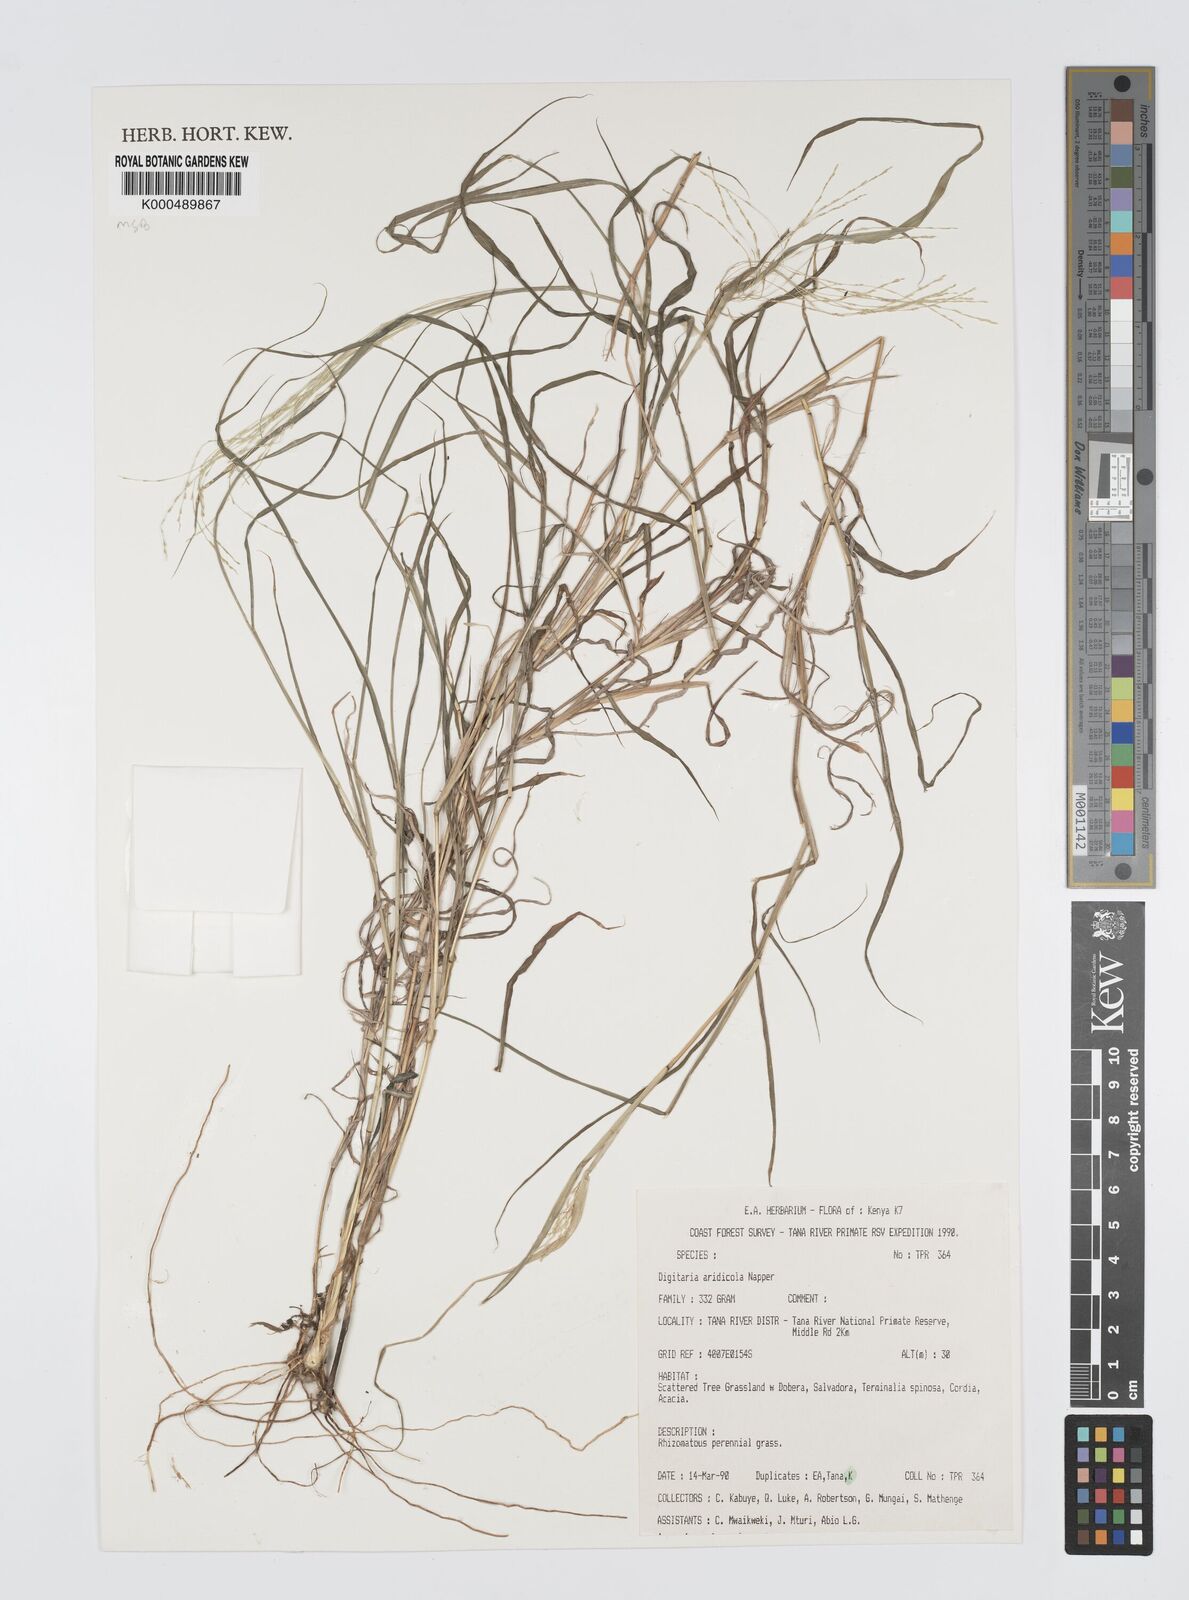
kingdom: Plantae
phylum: Tracheophyta
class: Liliopsida
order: Poales
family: Poaceae
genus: Digitaria
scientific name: Digitaria aridicola
